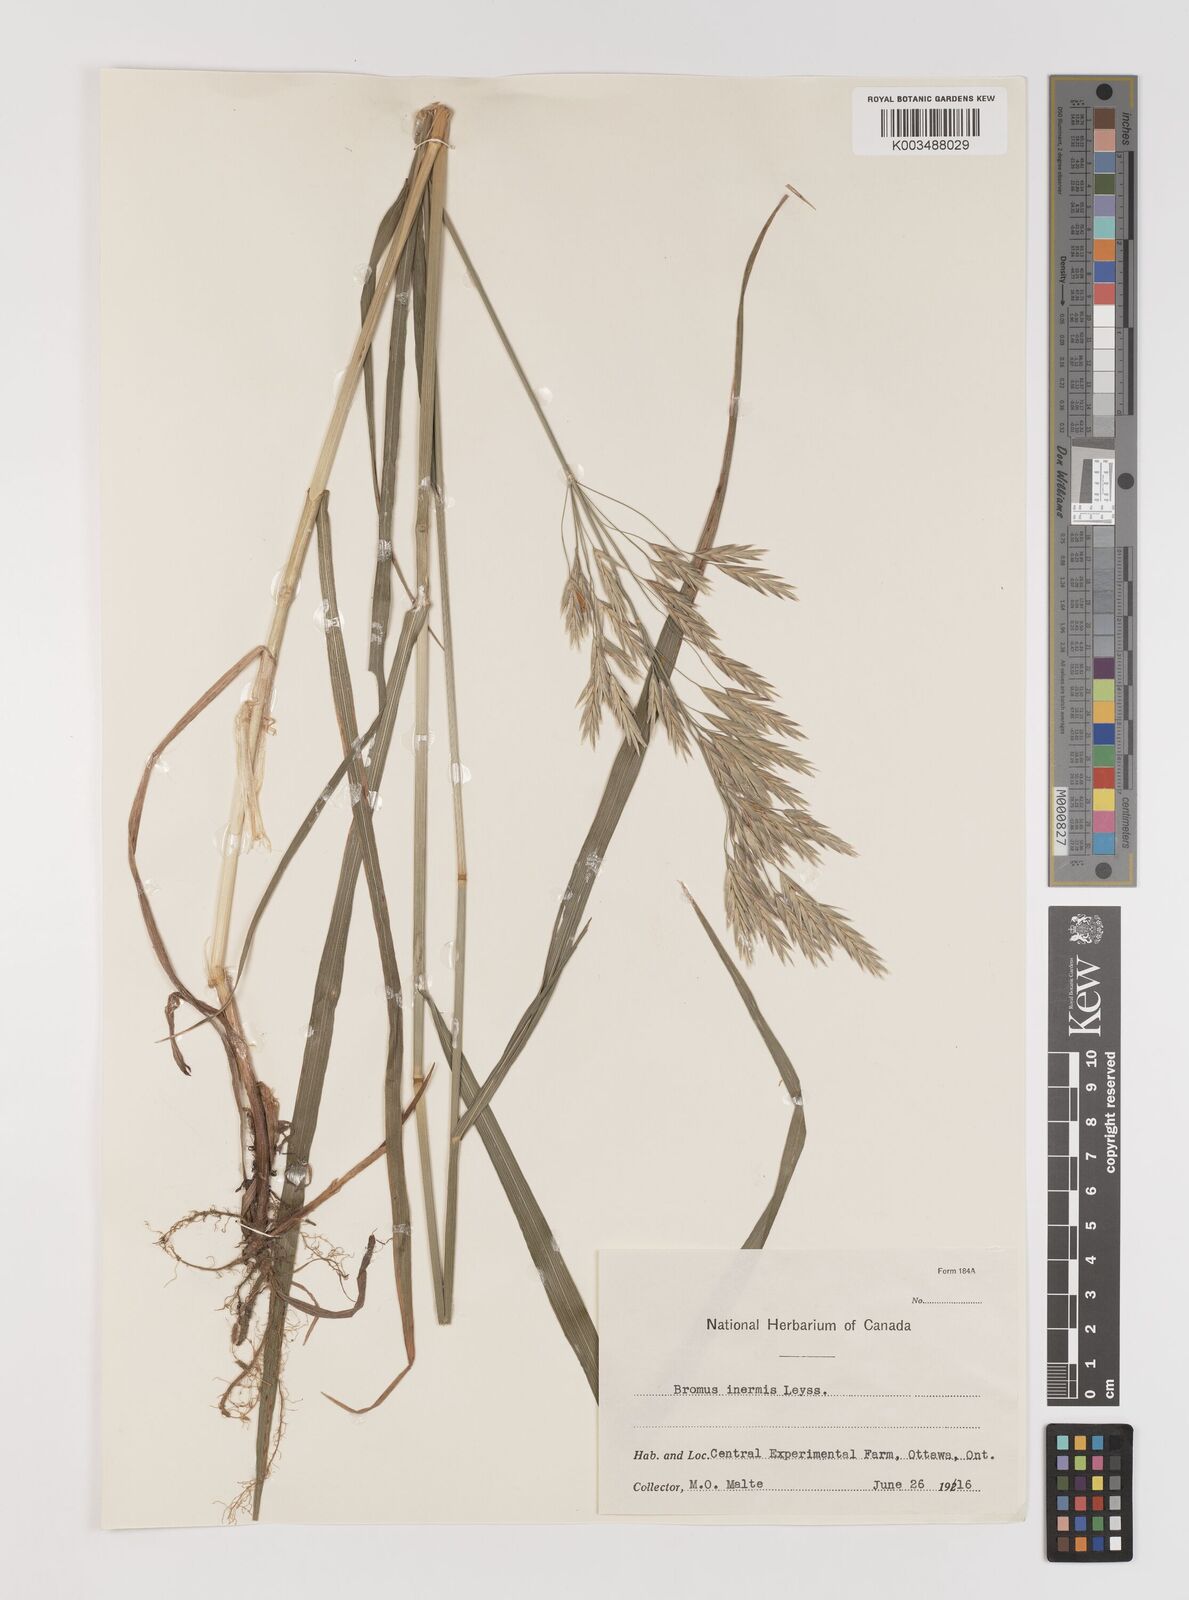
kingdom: Plantae
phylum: Tracheophyta
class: Liliopsida
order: Poales
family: Poaceae
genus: Bromus
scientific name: Bromus inermis
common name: Smooth brome
